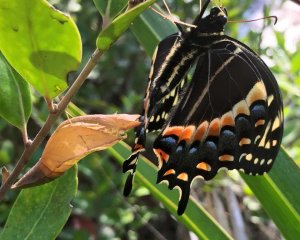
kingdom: Animalia
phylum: Arthropoda
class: Insecta
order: Lepidoptera
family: Papilionidae
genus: Pterourus
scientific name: Pterourus palamedes
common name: Palamedes Swallowtail
